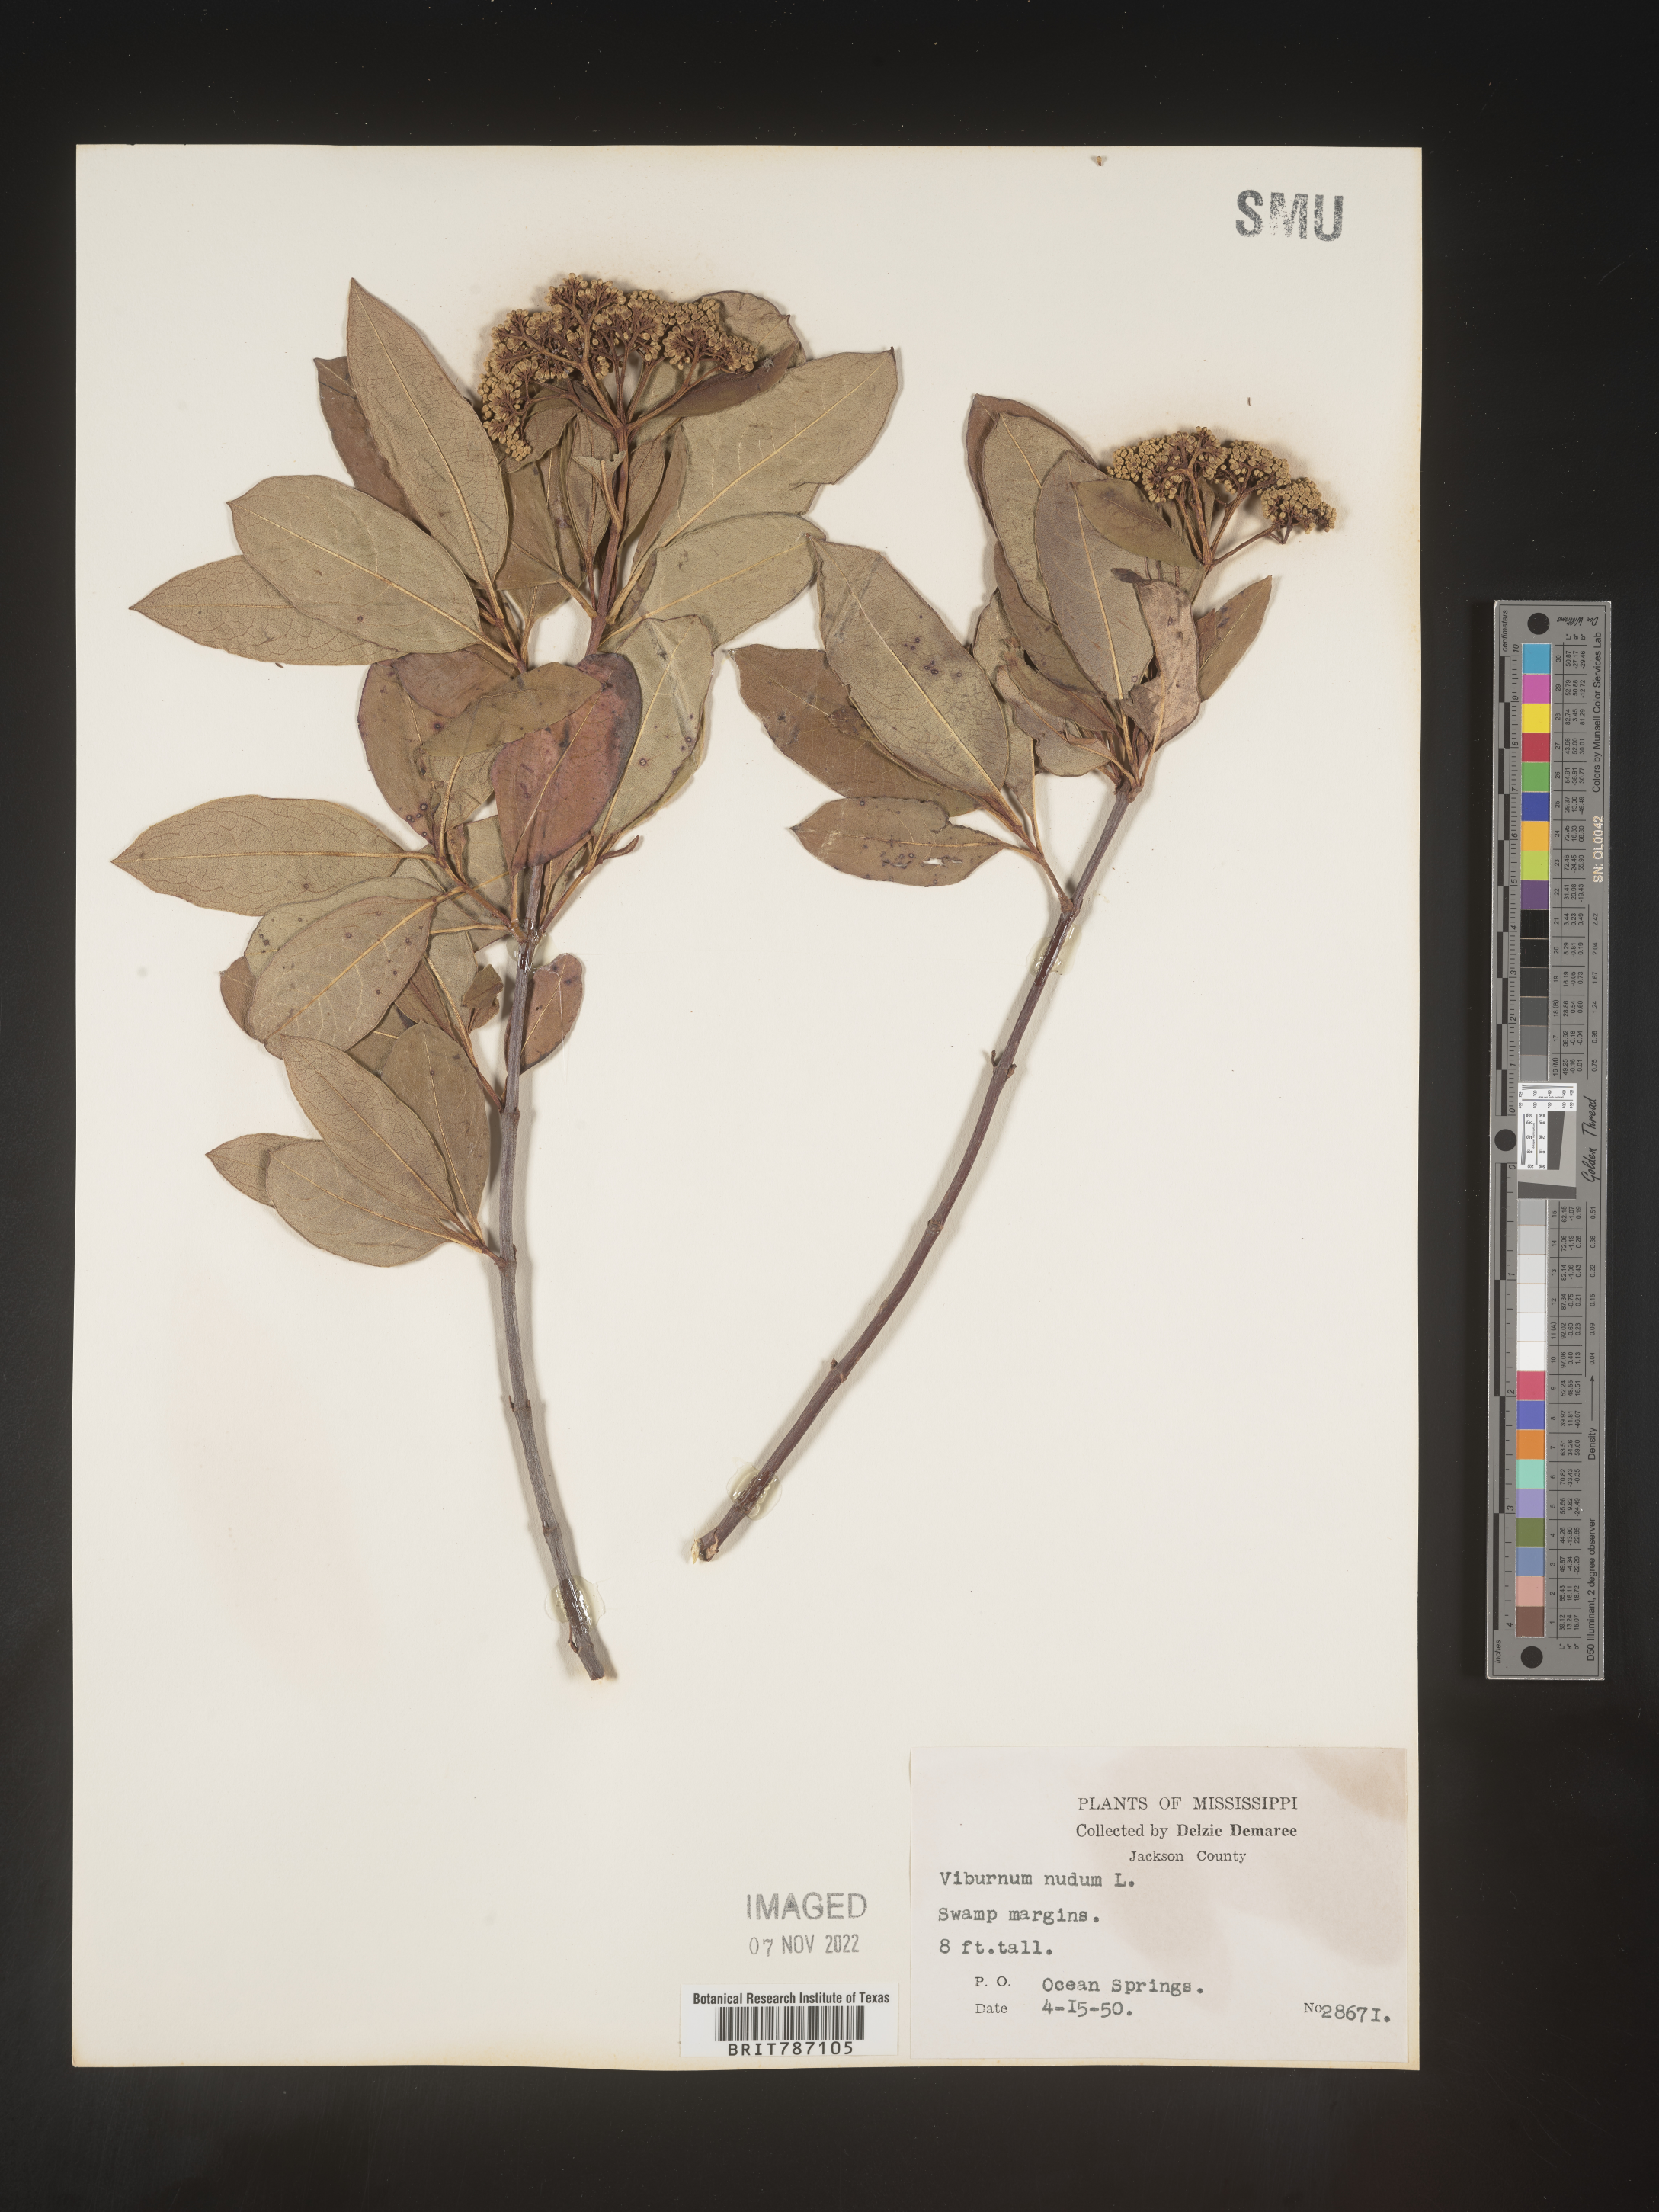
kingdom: Plantae
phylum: Tracheophyta
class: Magnoliopsida
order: Dipsacales
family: Viburnaceae
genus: Viburnum
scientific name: Viburnum nudum
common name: Possum haw
